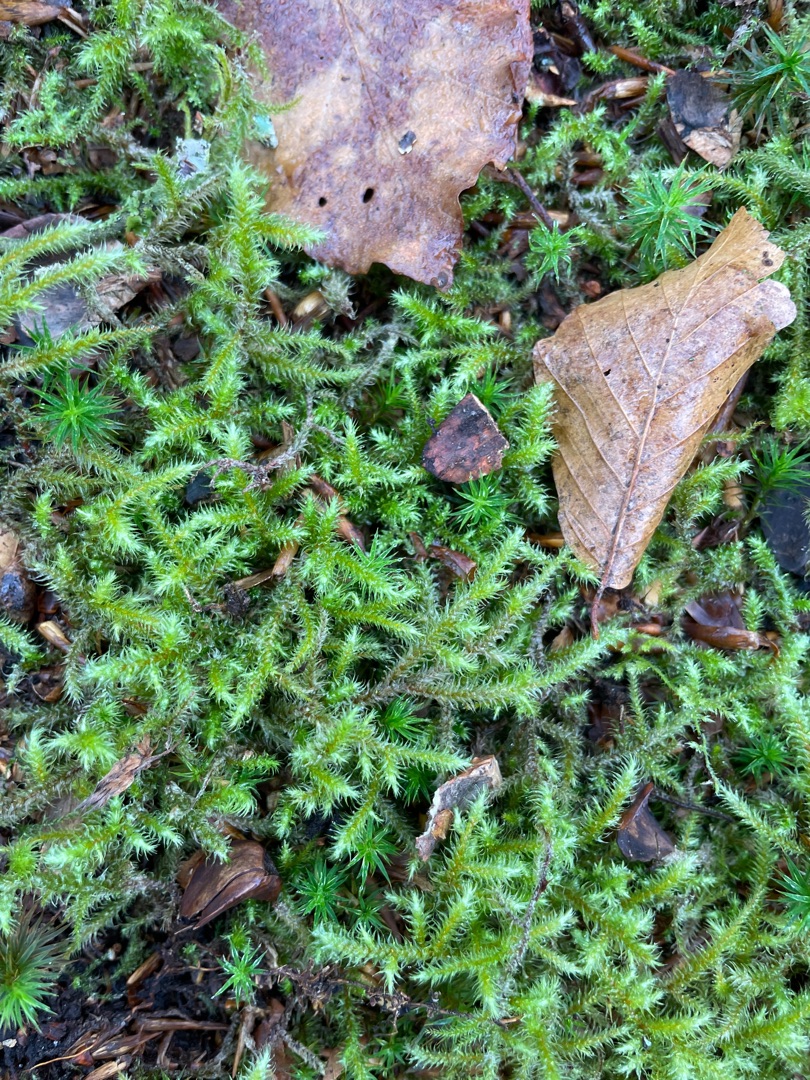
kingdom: Plantae
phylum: Bryophyta
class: Bryopsida
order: Hypnales
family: Hylocomiaceae
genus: Rhytidiadelphus
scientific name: Rhytidiadelphus loreus
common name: Ulvefod-kransemos
